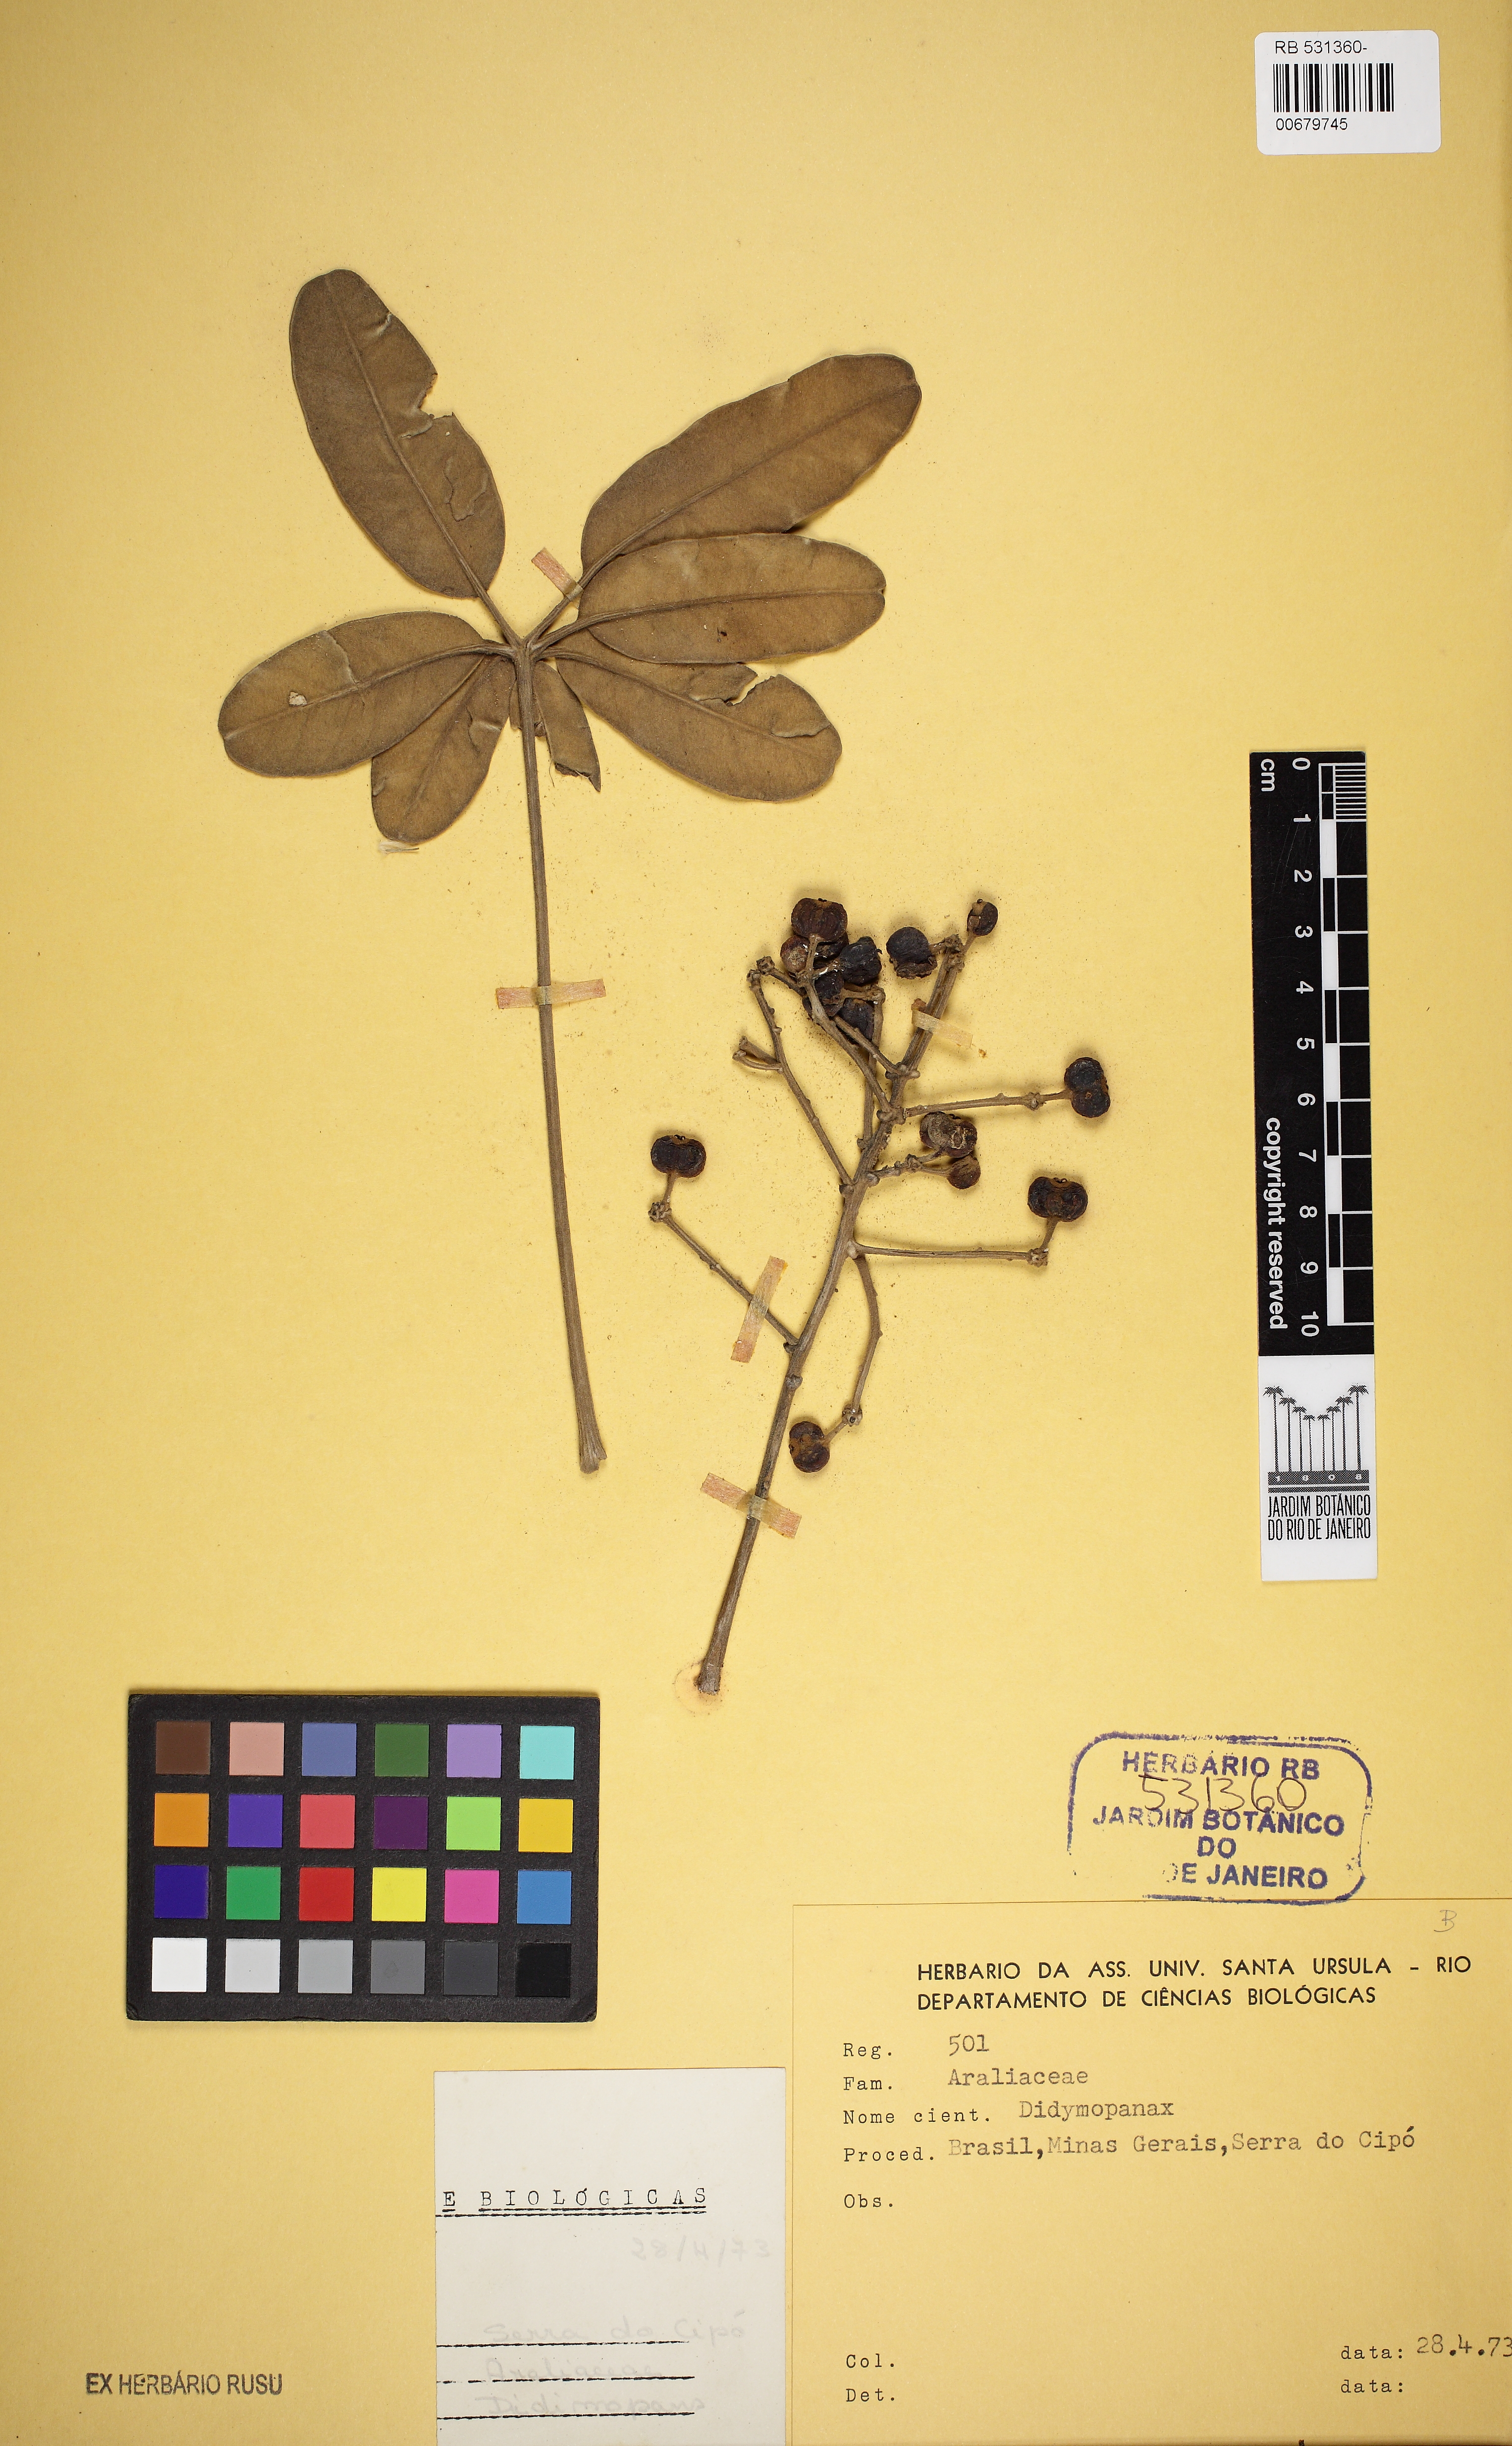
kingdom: Plantae
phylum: Tracheophyta
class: Magnoliopsida
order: Apiales
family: Araliaceae
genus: Didymopanax
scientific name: Didymopanax macrocarpus
